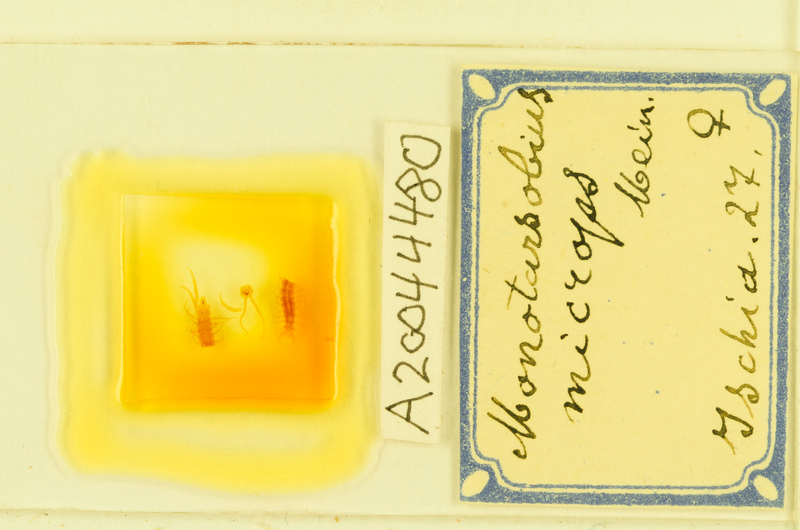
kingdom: Animalia
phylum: Arthropoda
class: Chilopoda
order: Lithobiomorpha
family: Lithobiidae
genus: Monotarsobius
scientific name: Monotarsobius microps
